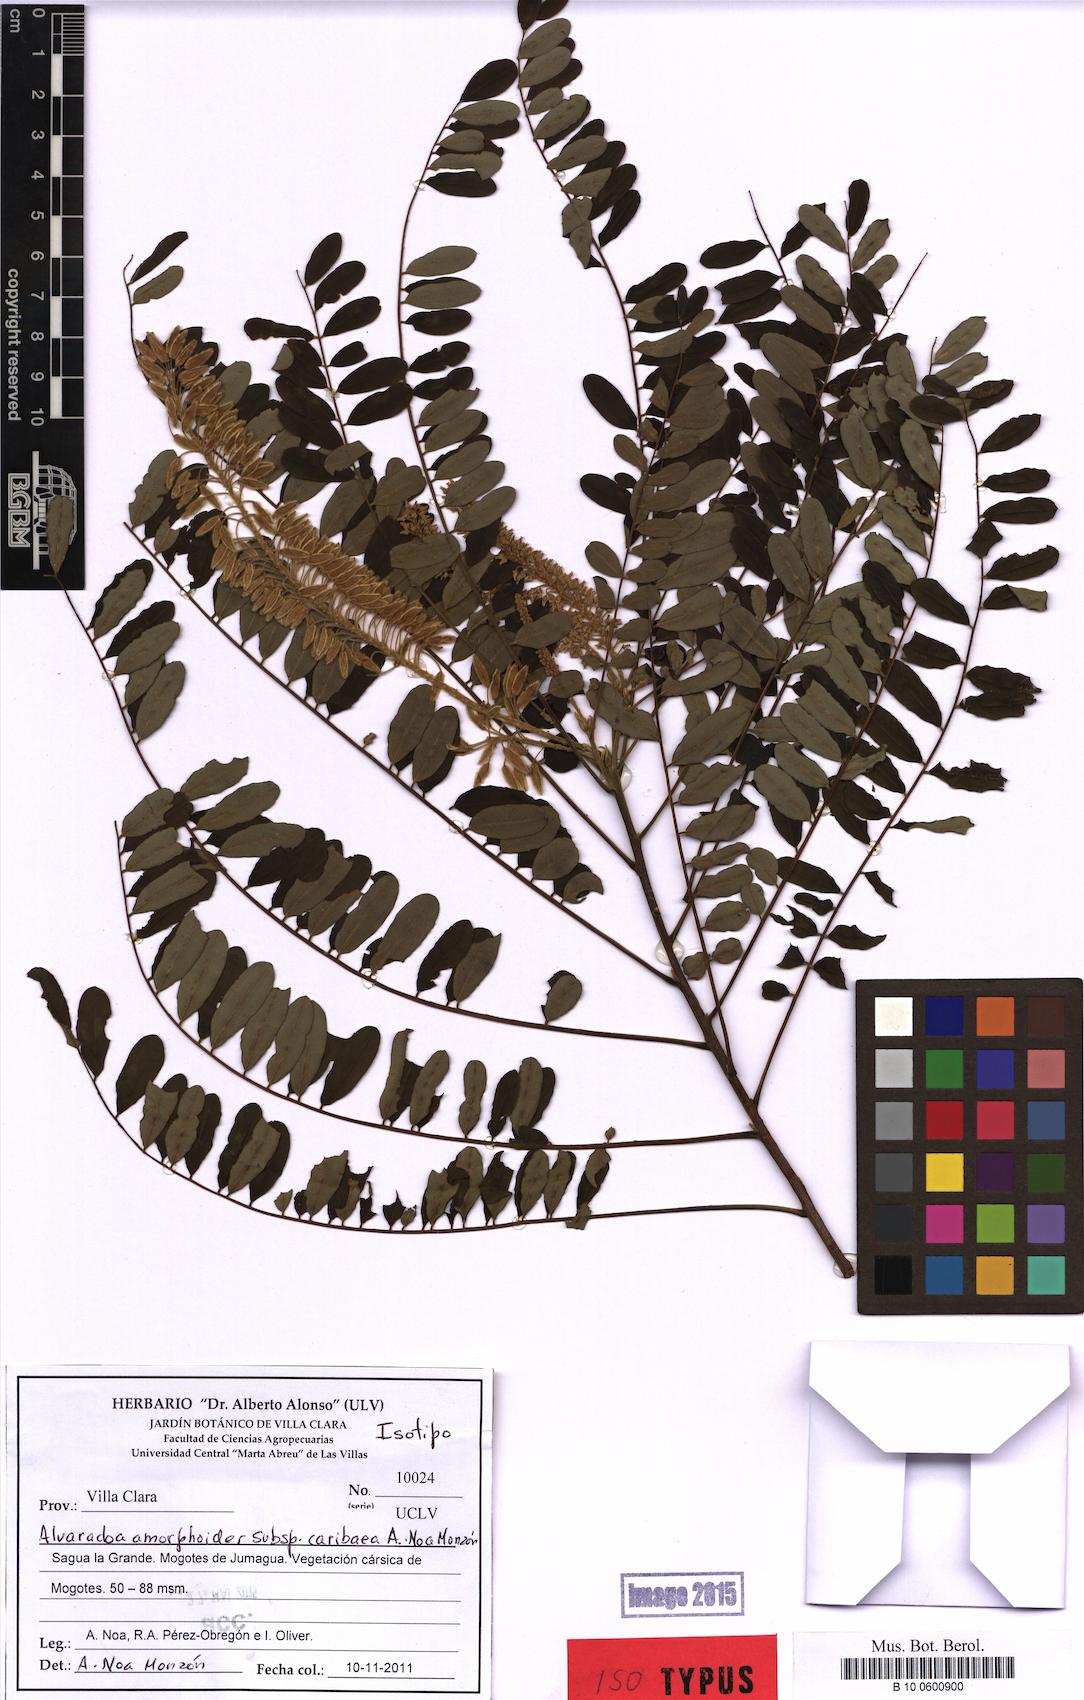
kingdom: Plantae
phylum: Tracheophyta
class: Magnoliopsida
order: Picramniales
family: Picramniaceae
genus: Alvaradoa
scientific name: Alvaradoa amorphoides
